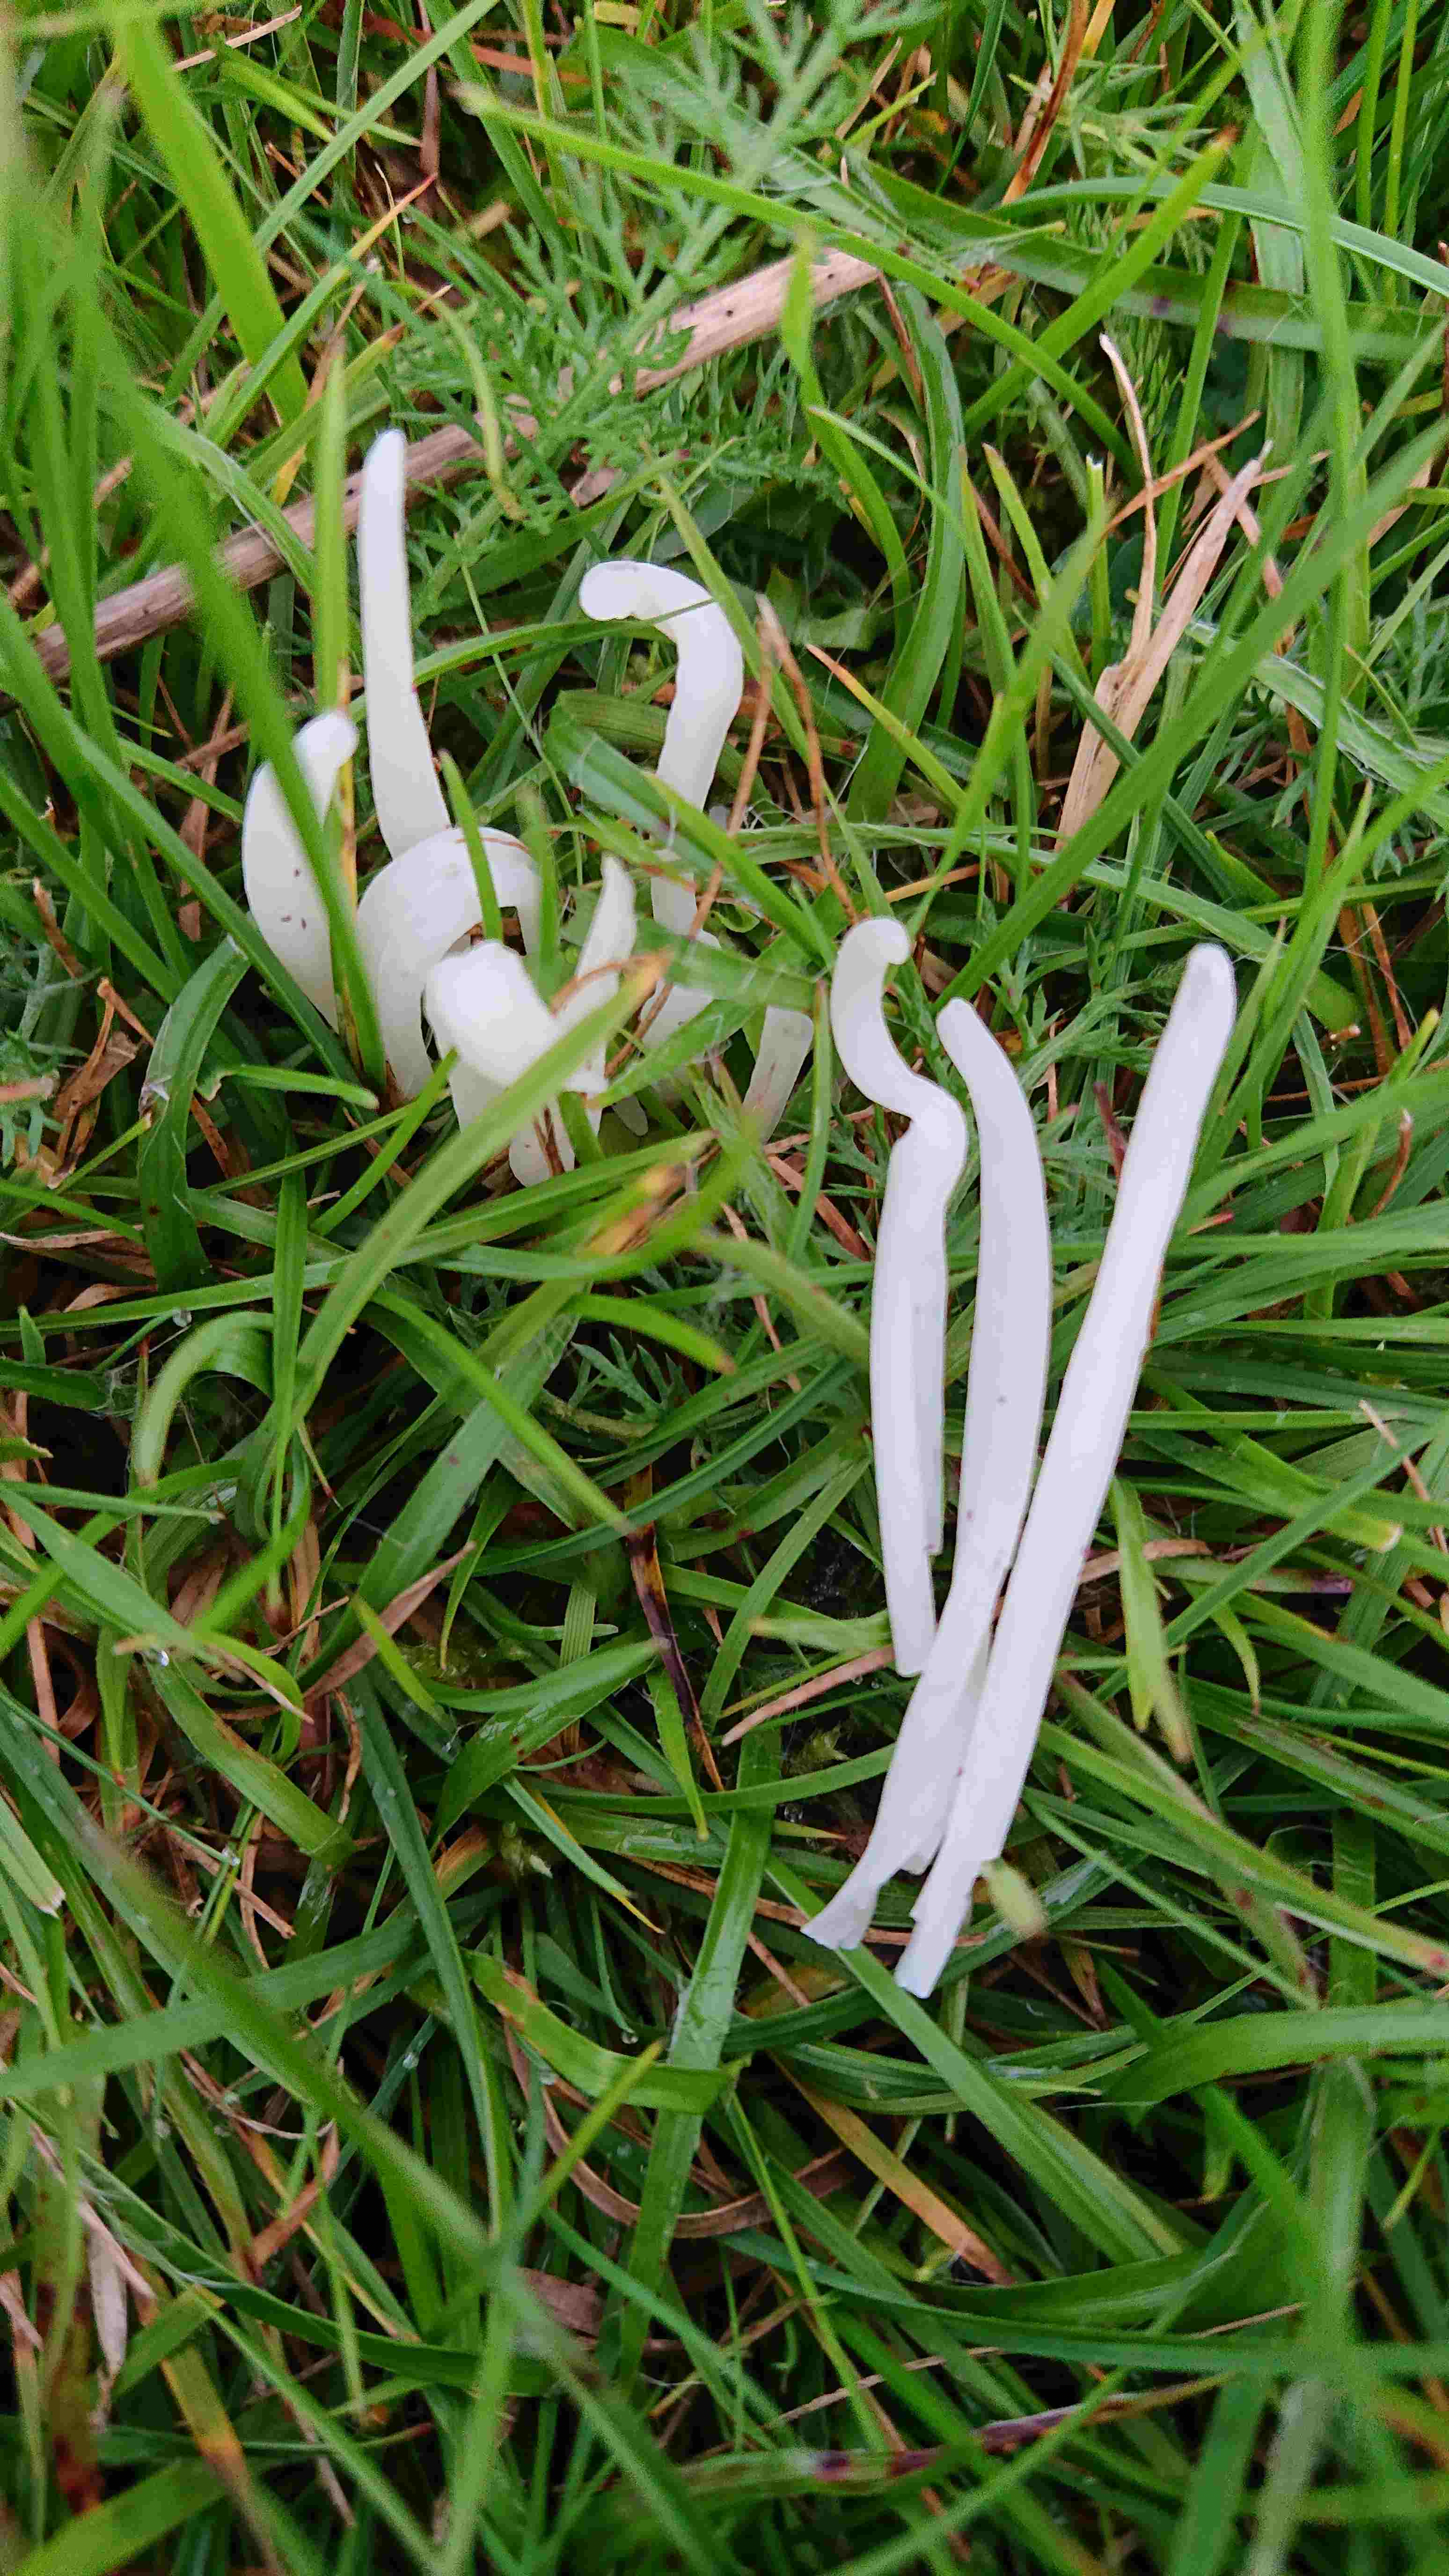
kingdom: Fungi
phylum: Basidiomycota
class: Agaricomycetes
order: Agaricales
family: Clavariaceae
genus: Clavaria
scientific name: Clavaria fragilis
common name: bugtet køllesvamp
